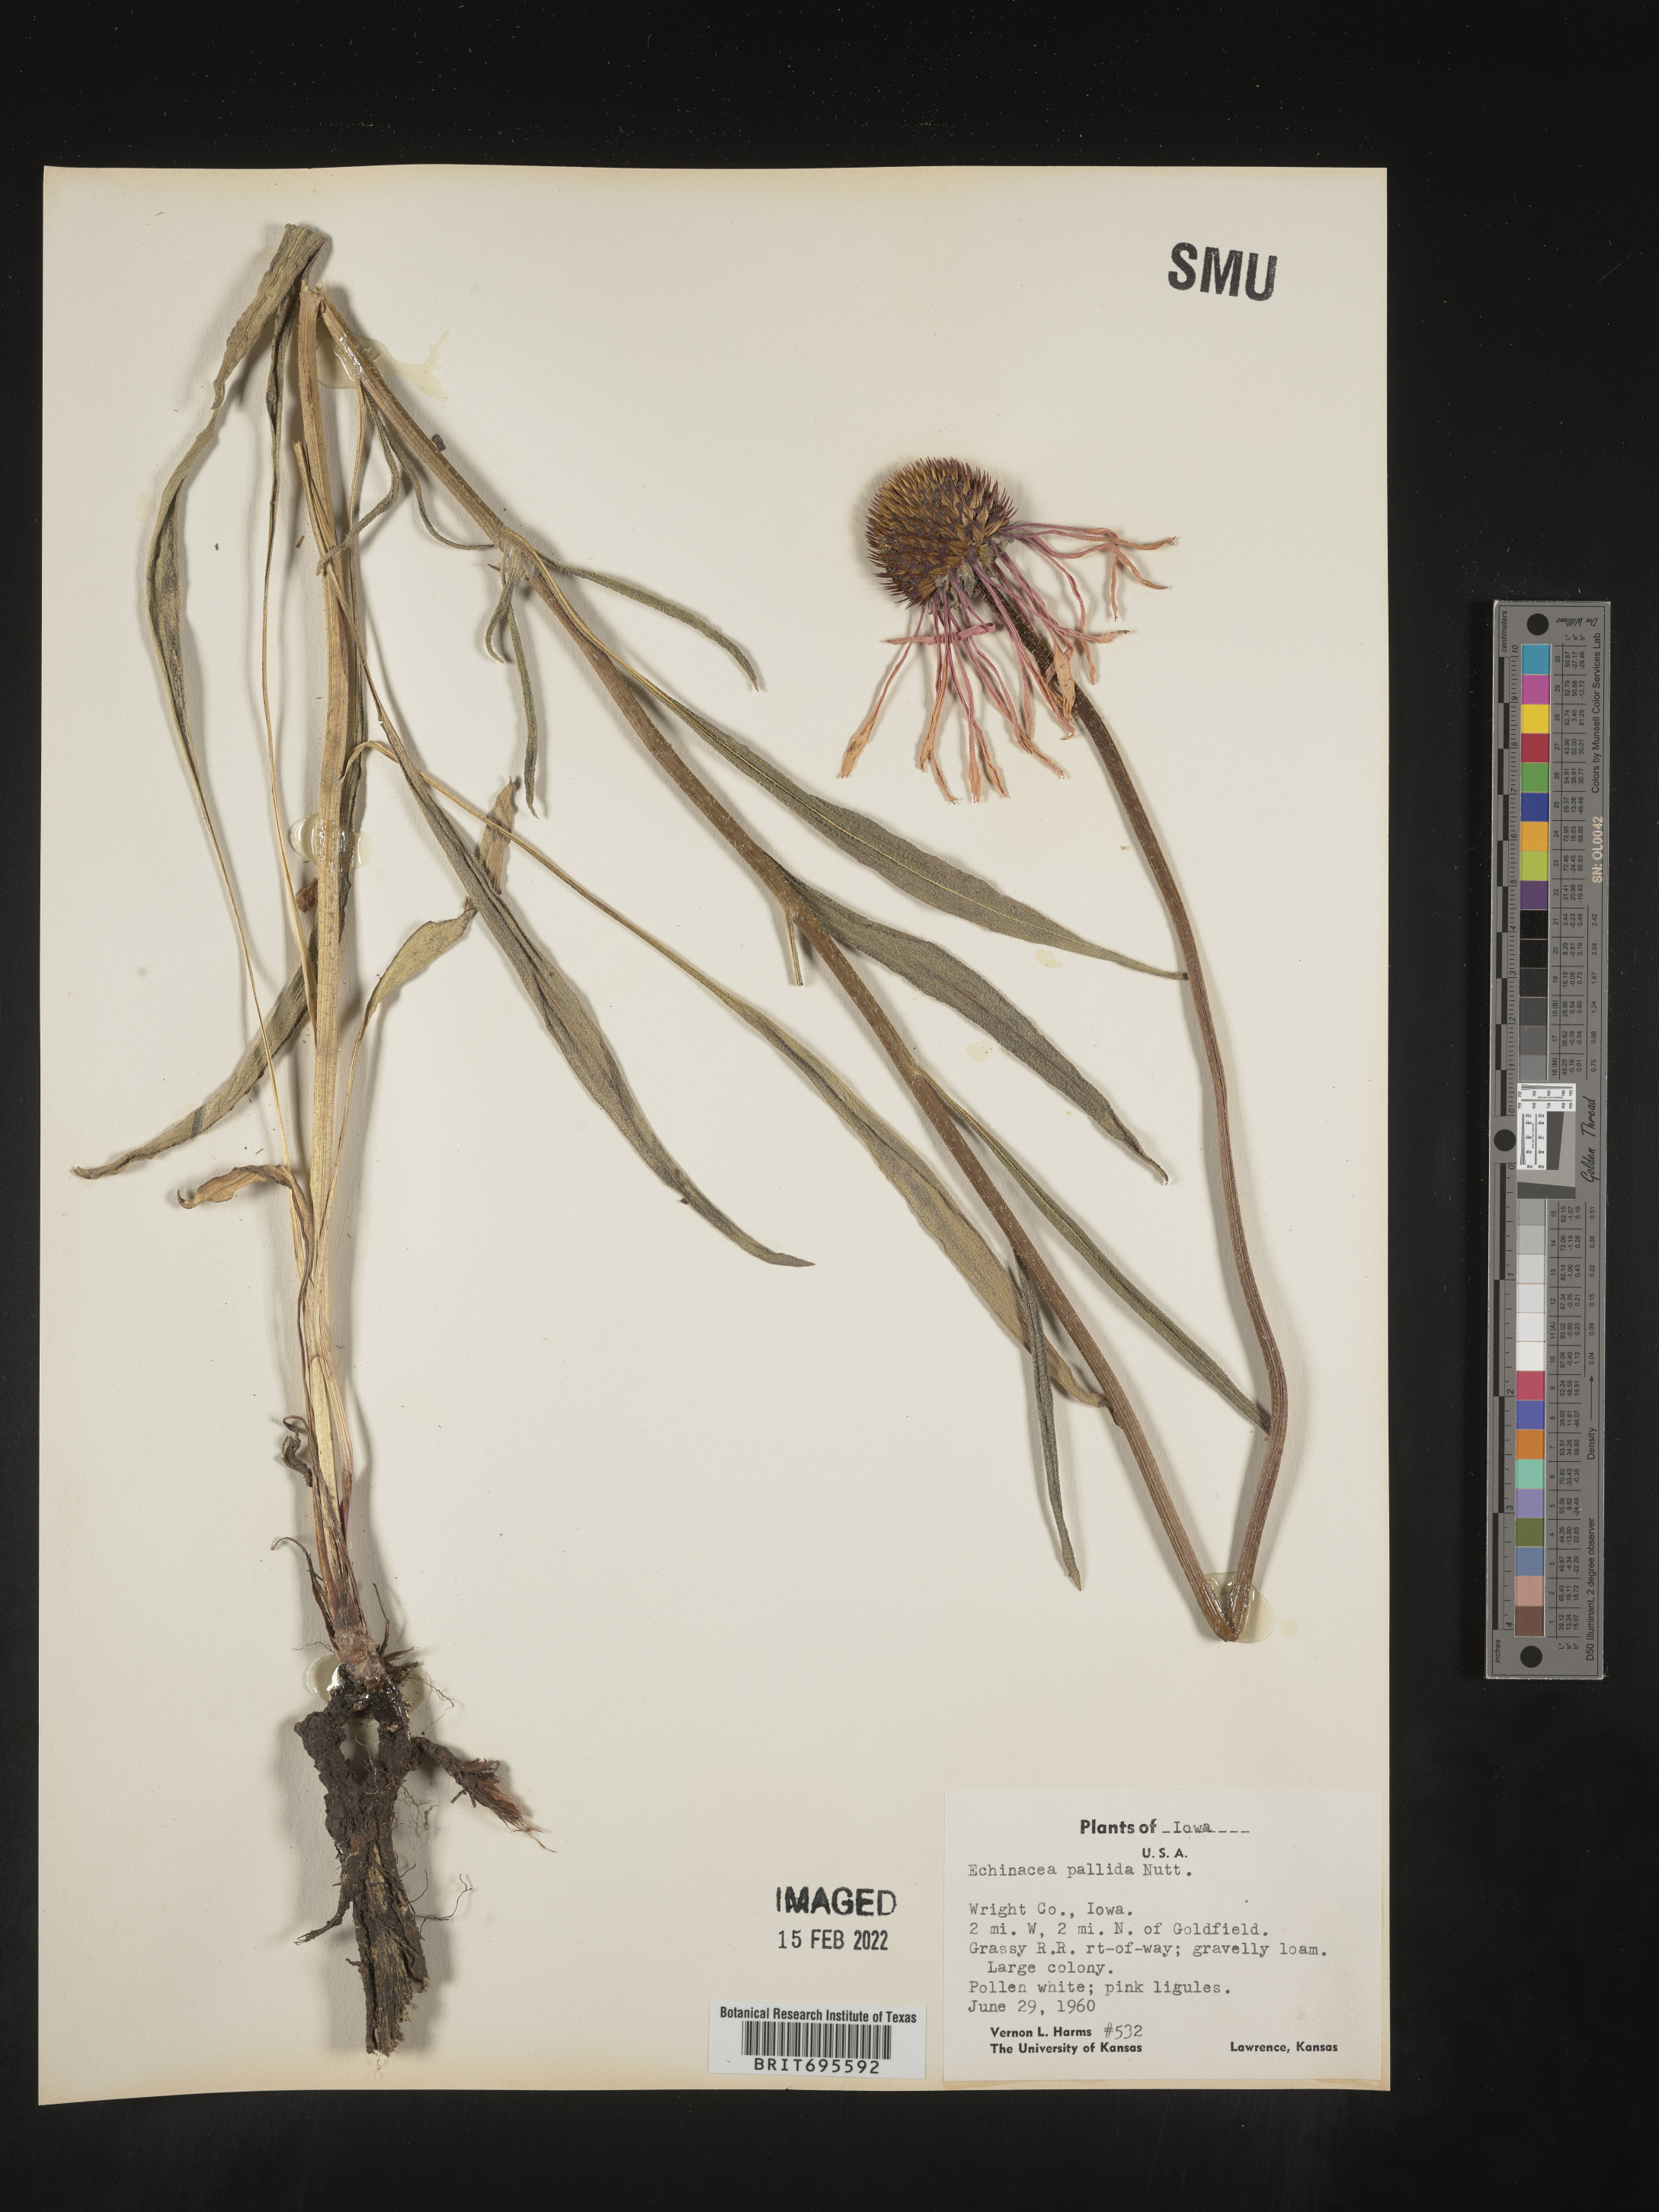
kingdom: Plantae
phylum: Tracheophyta
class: Magnoliopsida
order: Asterales
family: Asteraceae
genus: Echinacea
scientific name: Echinacea pallida
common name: Pale echinacea
